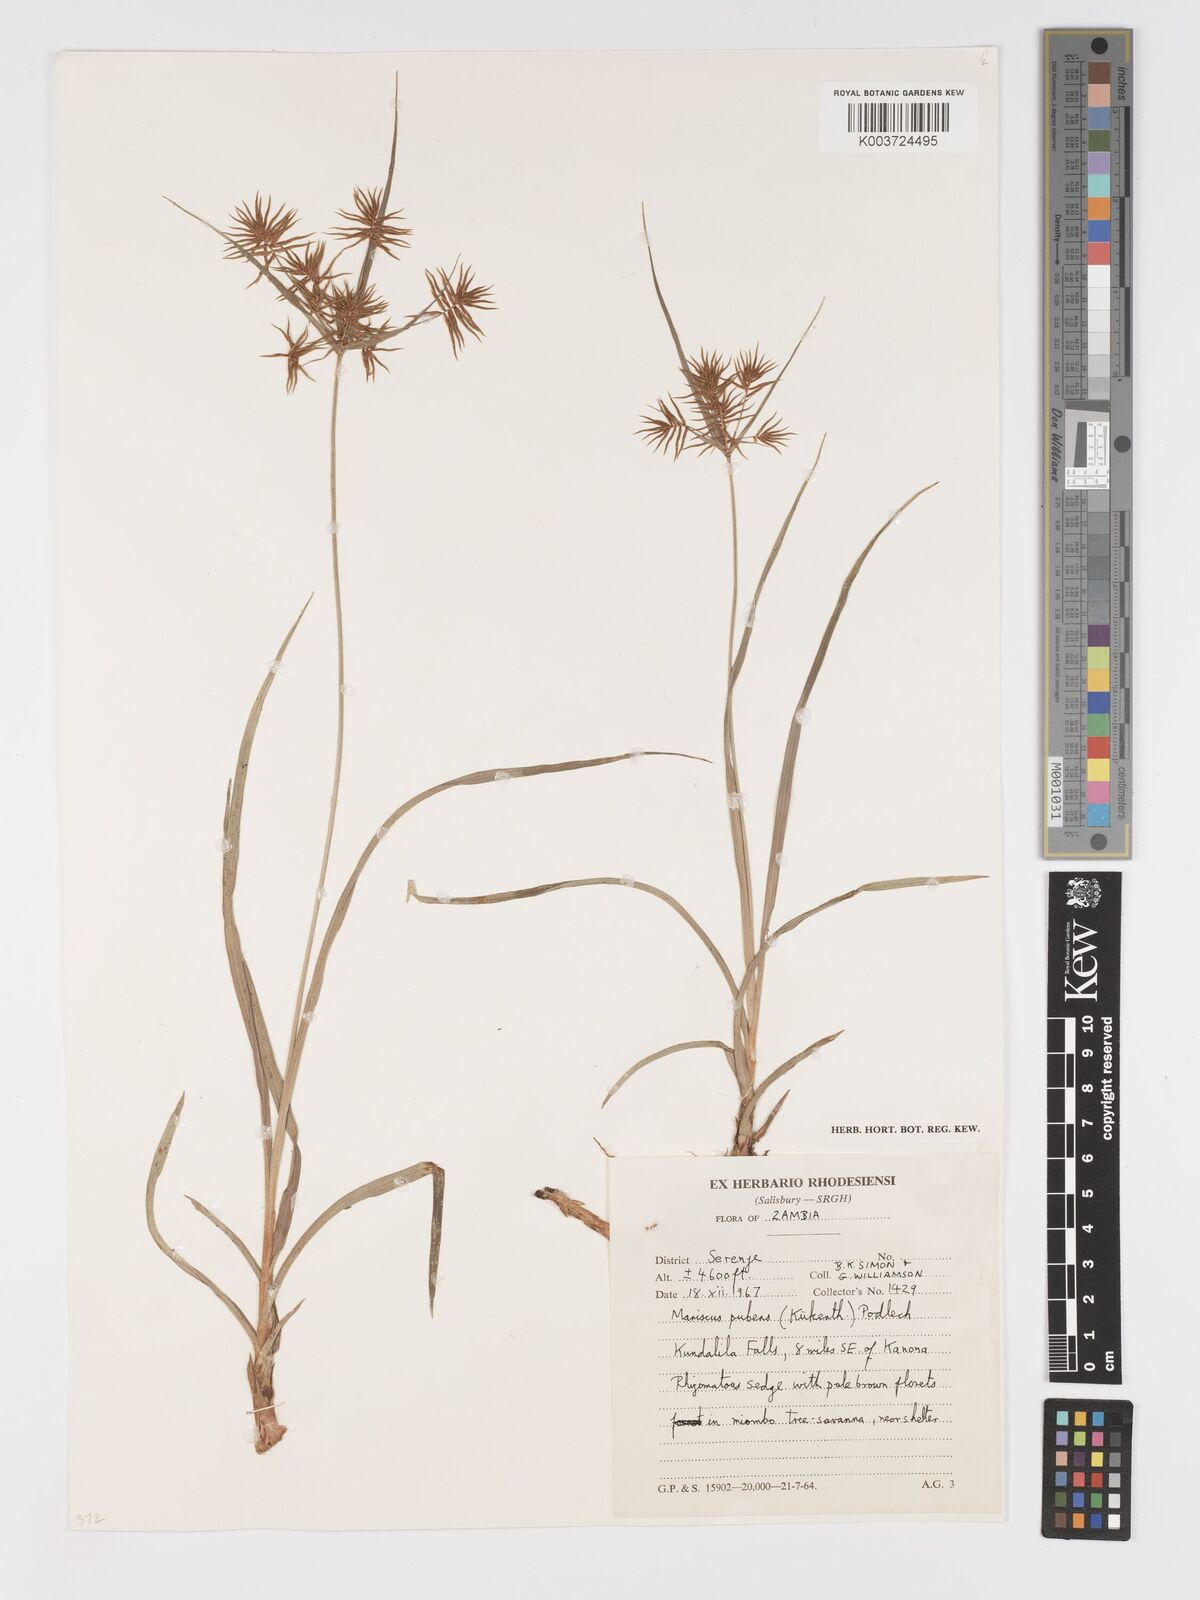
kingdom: Plantae
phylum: Tracheophyta
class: Liliopsida
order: Poales
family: Cyperaceae
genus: Cyperus
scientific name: Cyperus pubens
